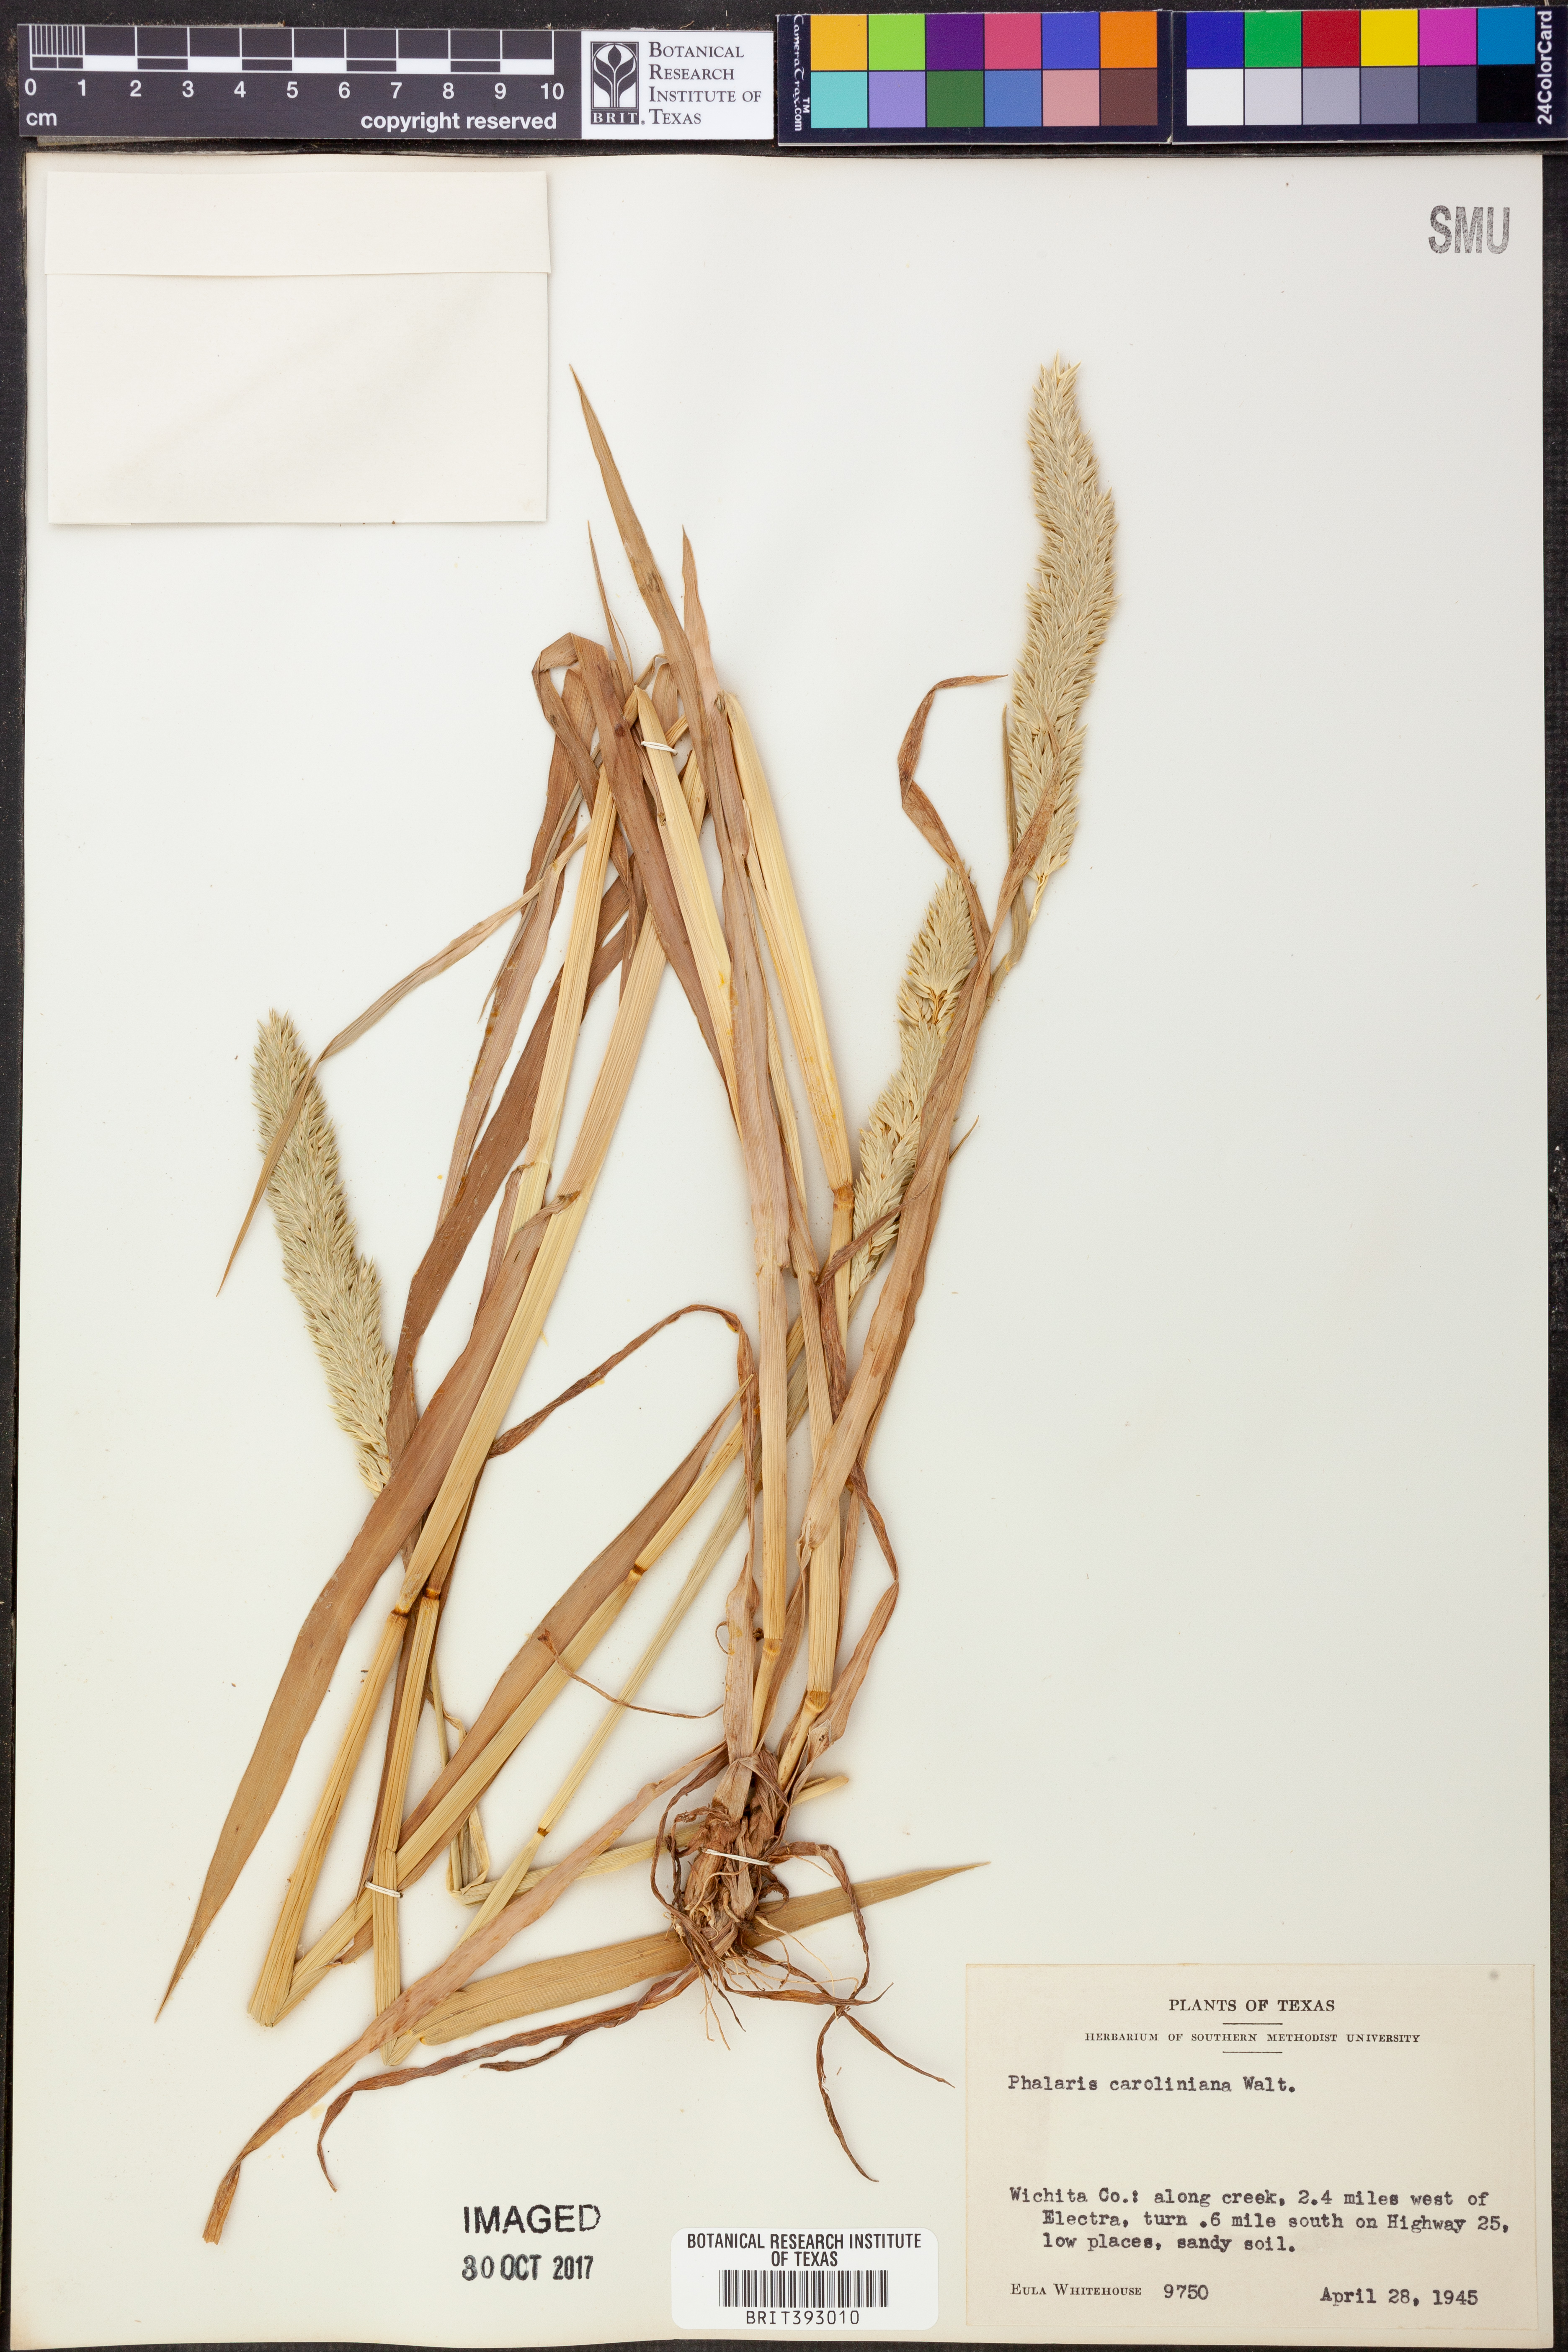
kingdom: Plantae
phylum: Tracheophyta
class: Liliopsida
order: Poales
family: Poaceae
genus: Phalaris
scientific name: Phalaris caroliniana
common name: May grass
